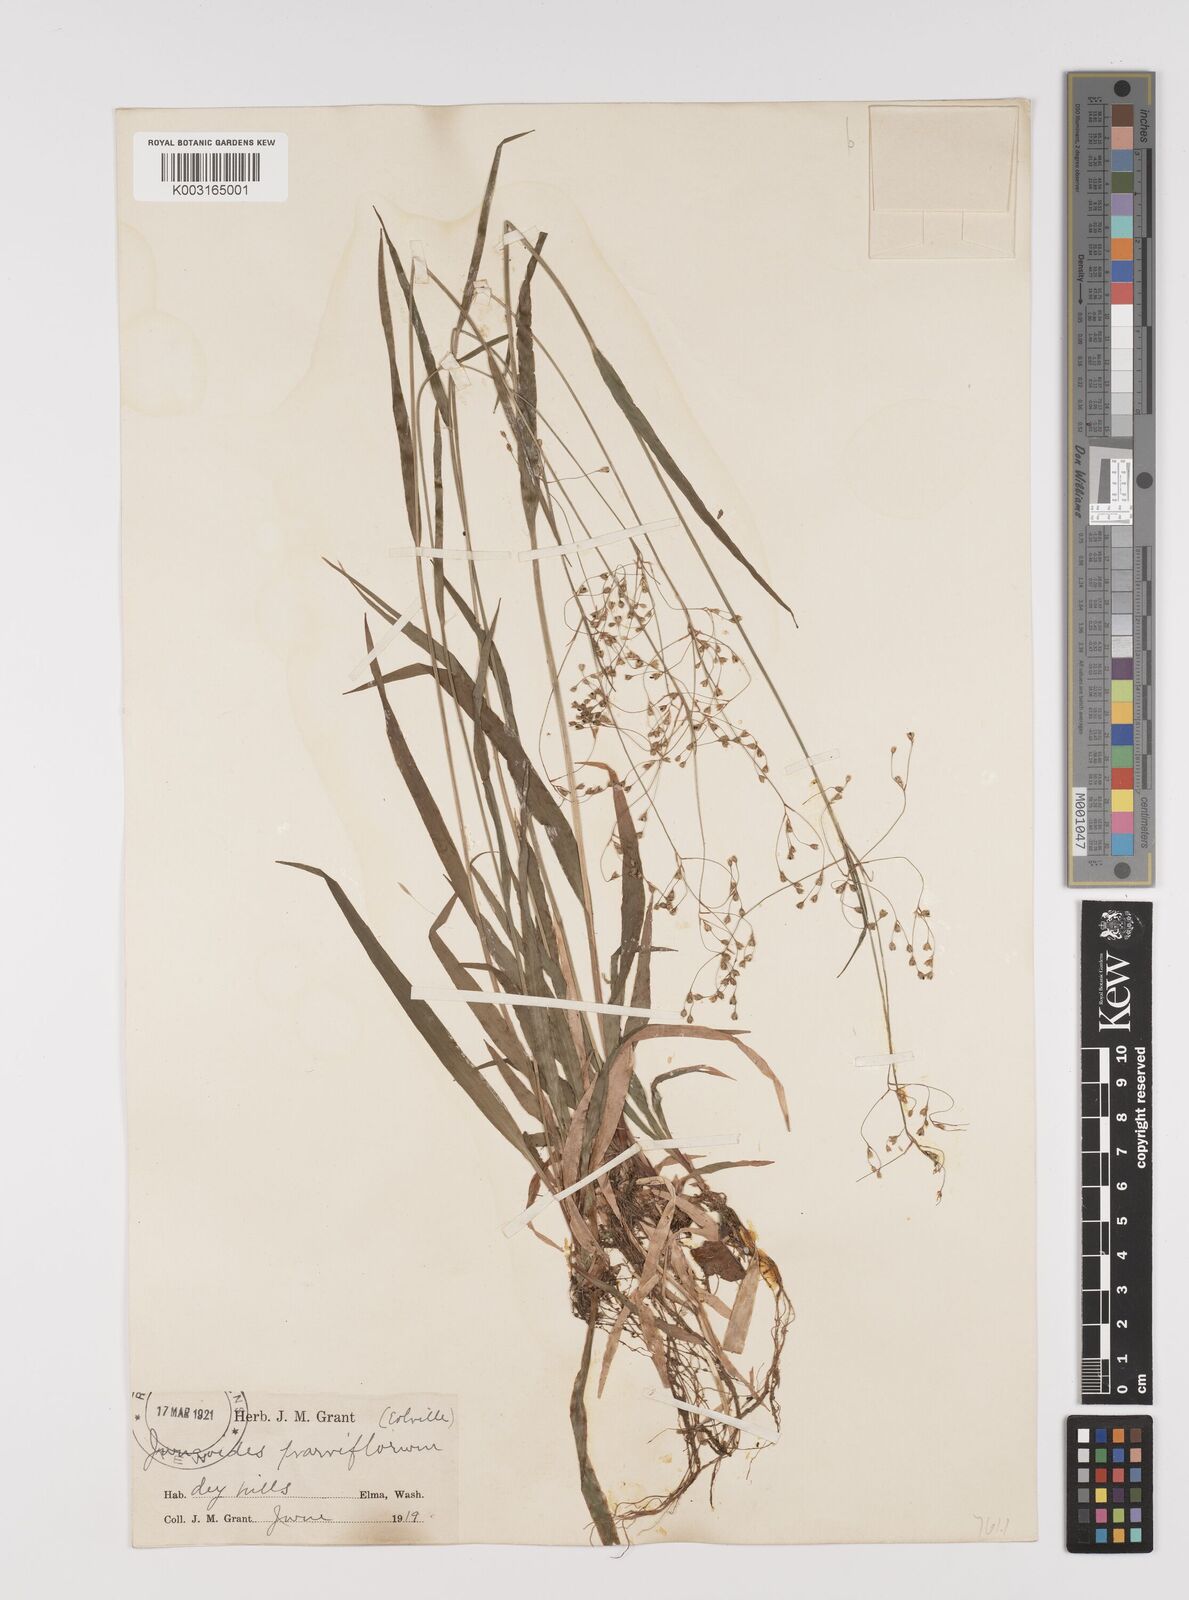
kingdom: Plantae
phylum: Tracheophyta
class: Liliopsida
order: Poales
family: Juncaceae
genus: Luzula
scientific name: Luzula parviflora
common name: Millet woodrush
